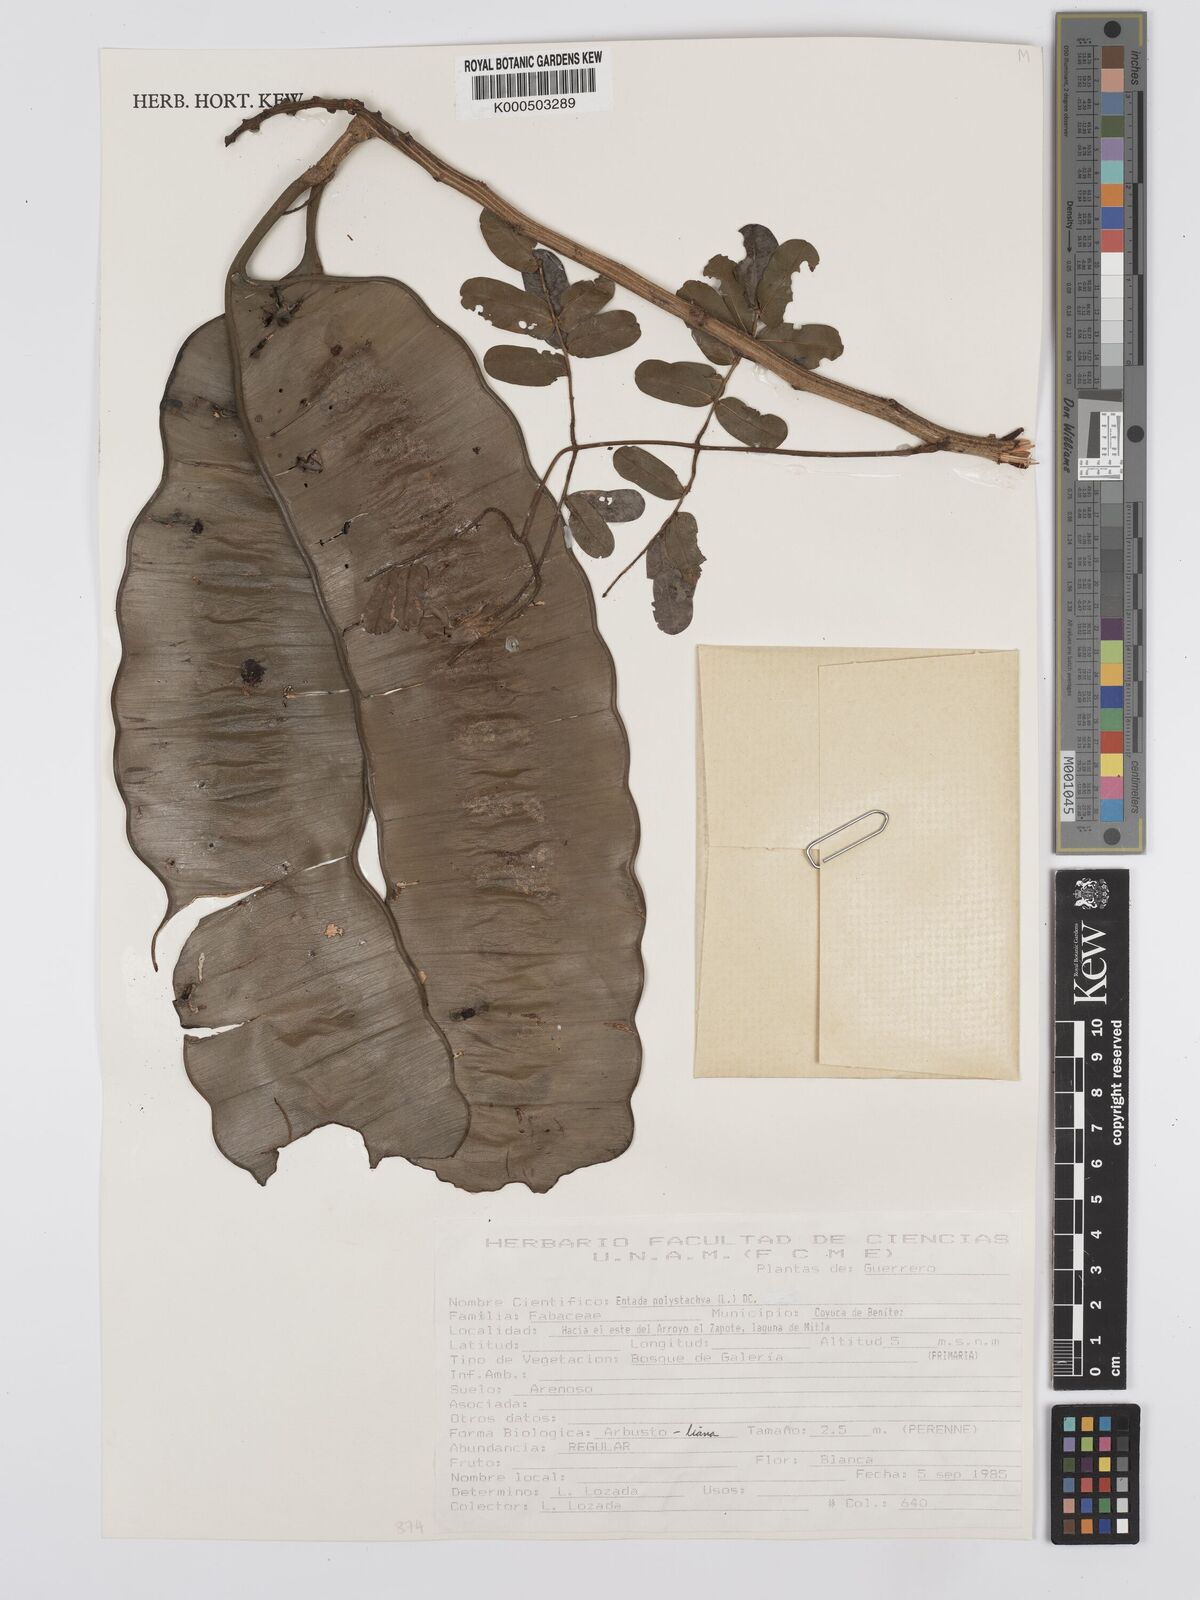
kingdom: Plantae
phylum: Tracheophyta
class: Magnoliopsida
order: Fabales
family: Fabaceae
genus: Entada
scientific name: Entada polystachya
